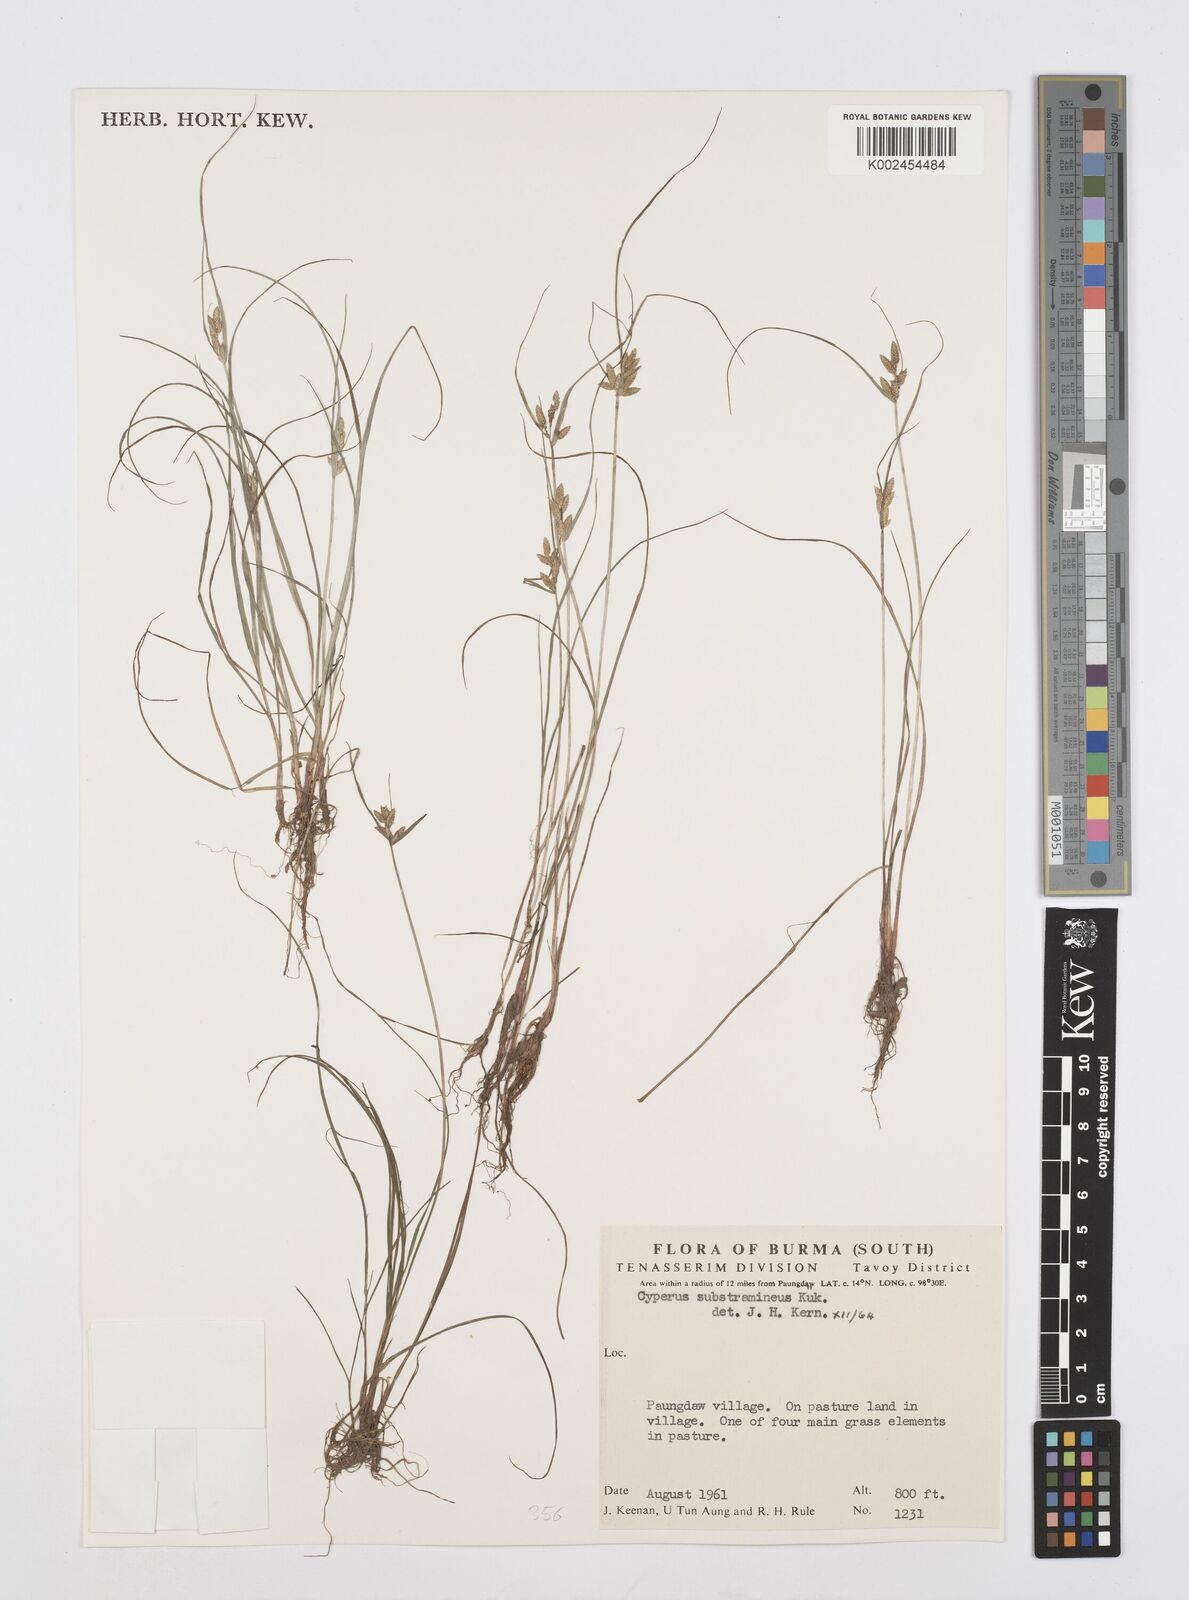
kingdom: Plantae
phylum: Tracheophyta
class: Liliopsida
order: Poales
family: Cyperaceae
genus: Cyperus
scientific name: Cyperus substramineus
